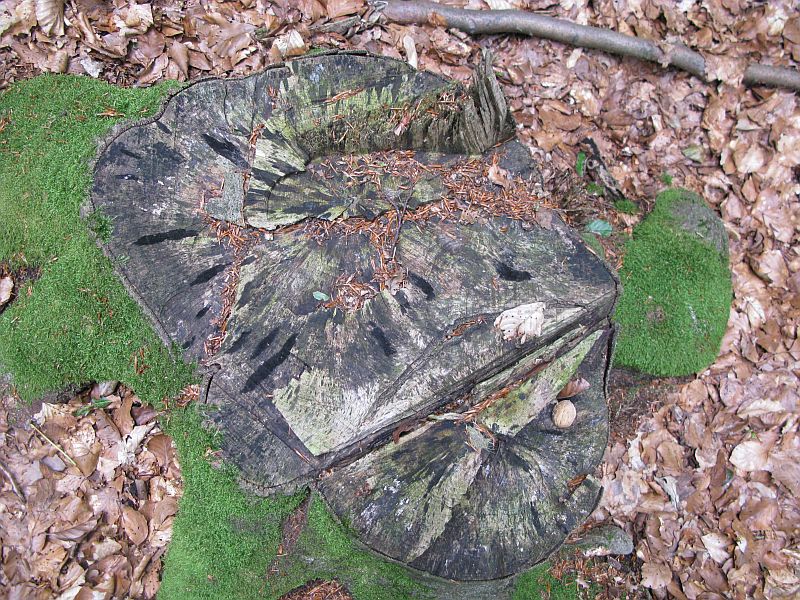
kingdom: Fungi
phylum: Ascomycota
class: Leotiomycetes
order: Helotiales
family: Helotiaceae
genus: Bispora
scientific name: Bispora pallescens
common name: måtte-snitskive
